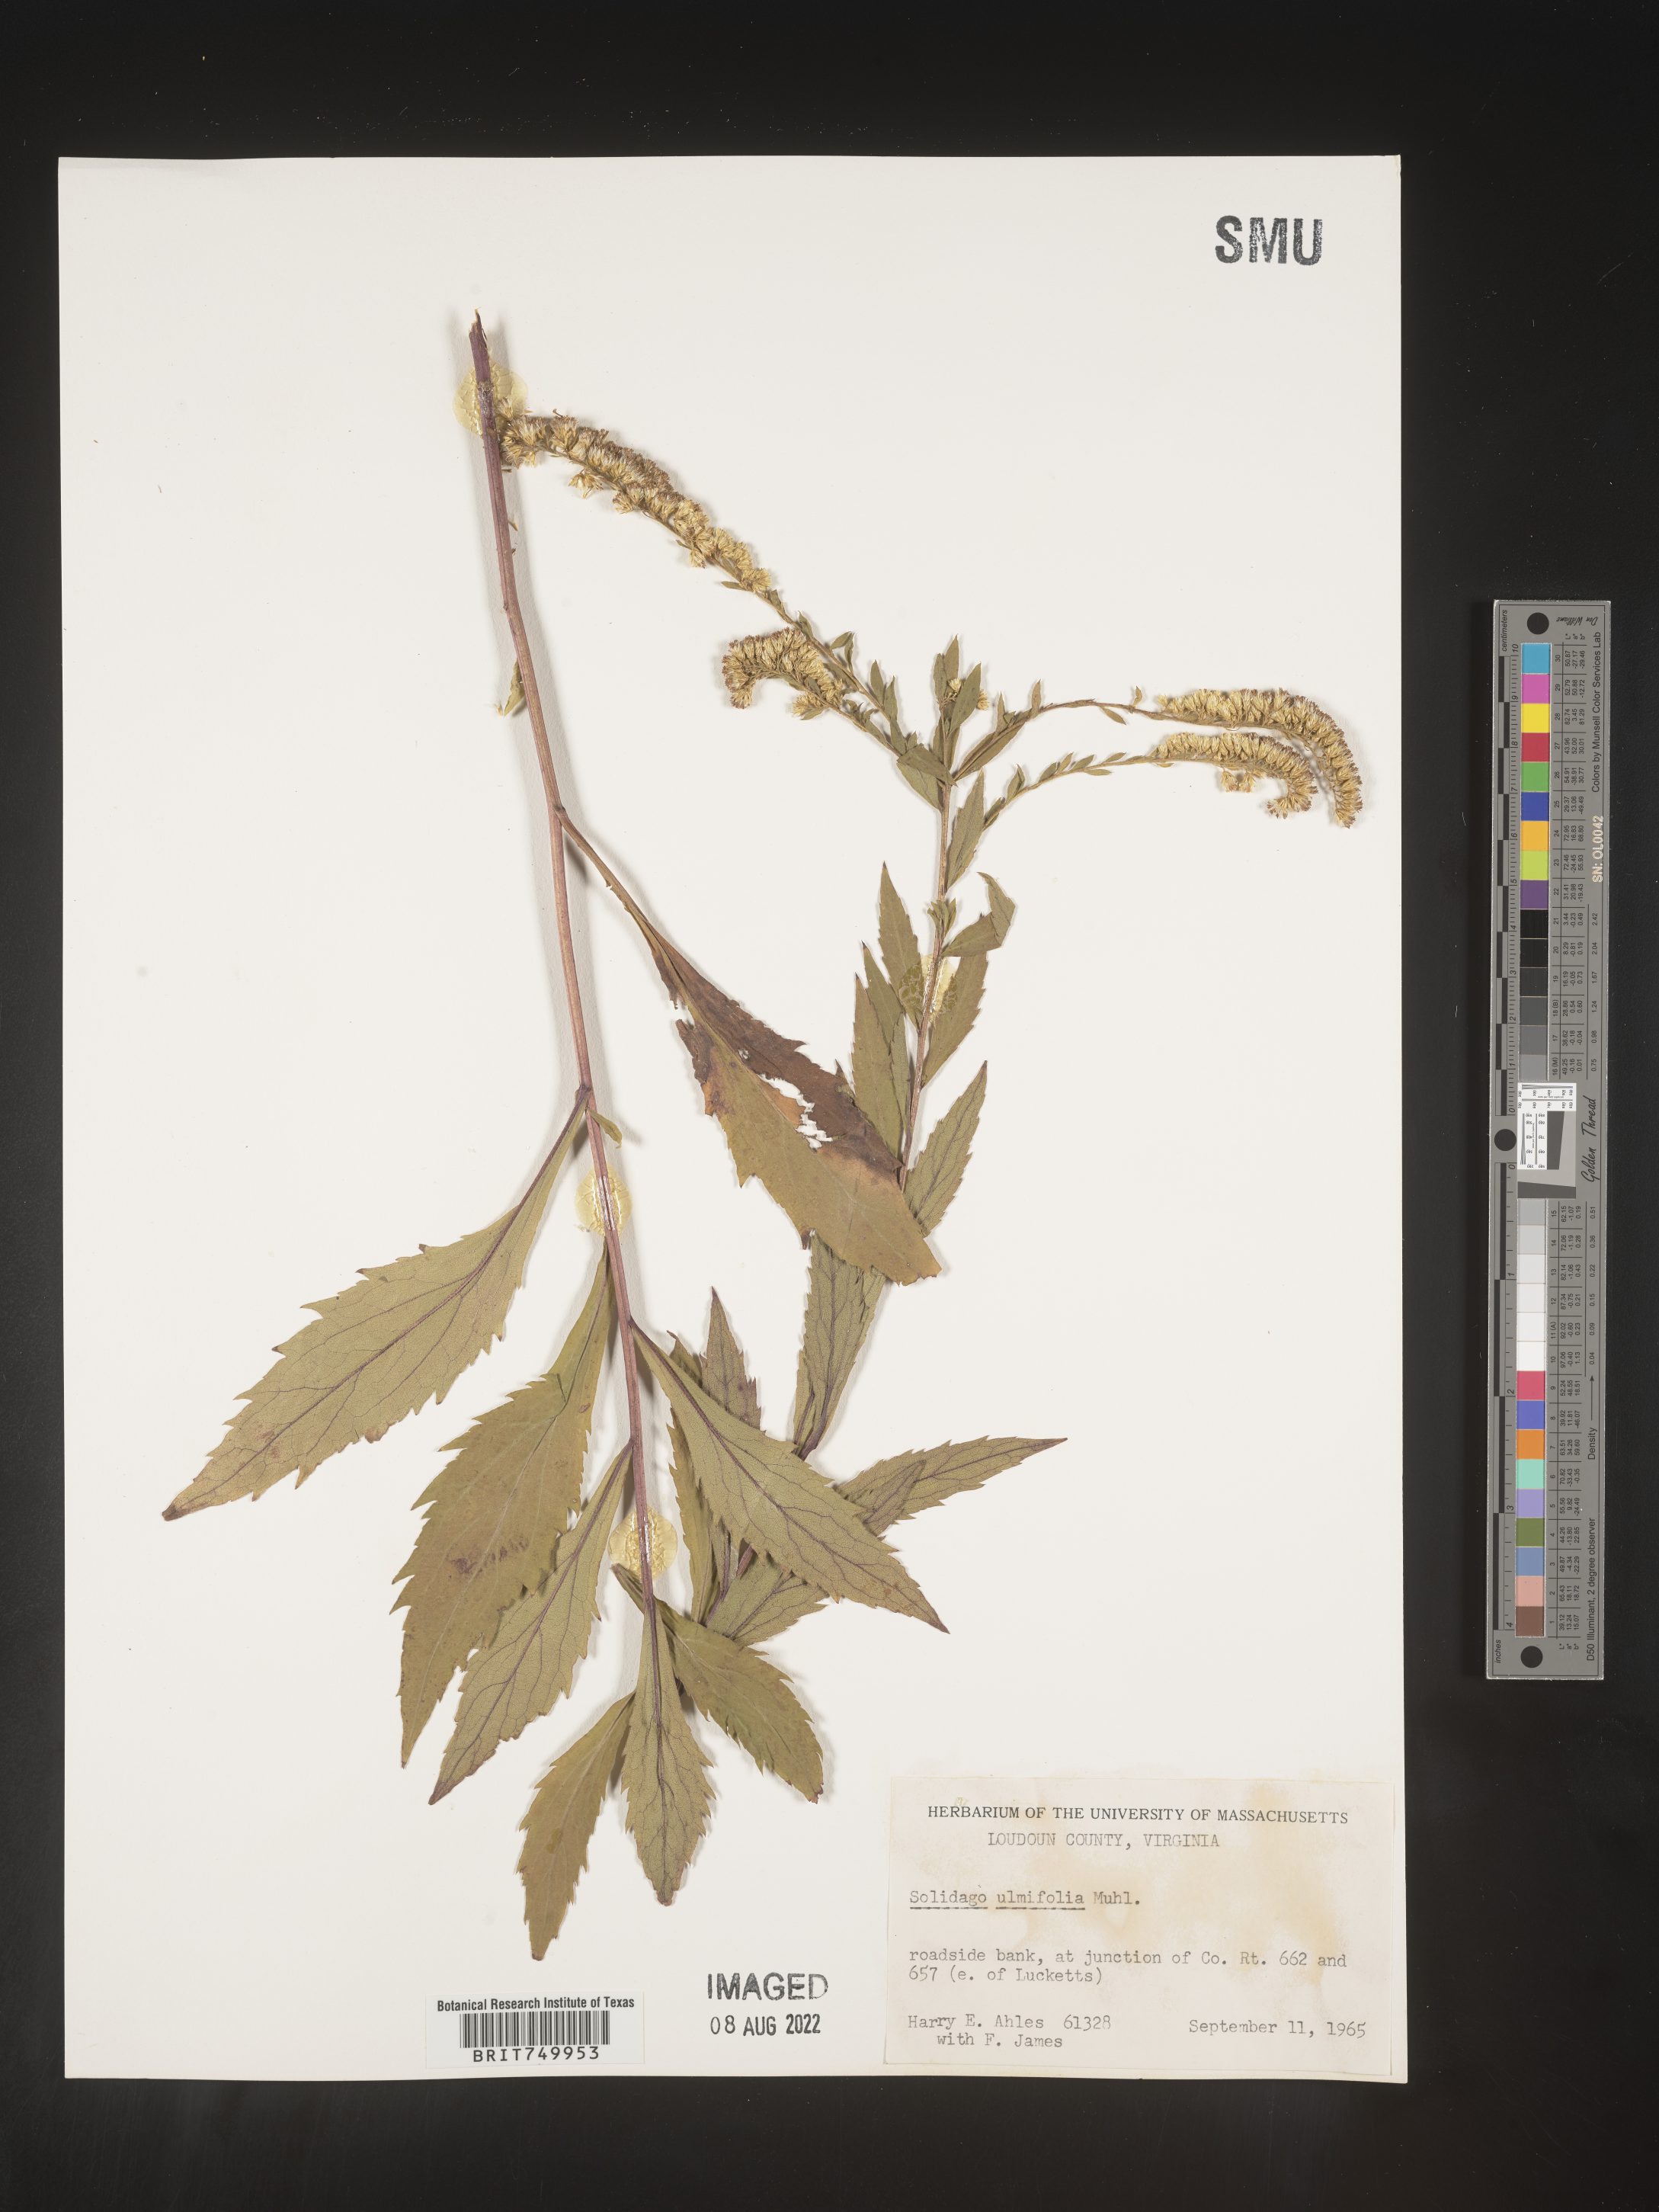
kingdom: Plantae
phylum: Tracheophyta
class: Magnoliopsida
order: Asterales
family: Asteraceae
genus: Solidago
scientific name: Solidago ulmifolia
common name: Elm-leaf goldenrod
